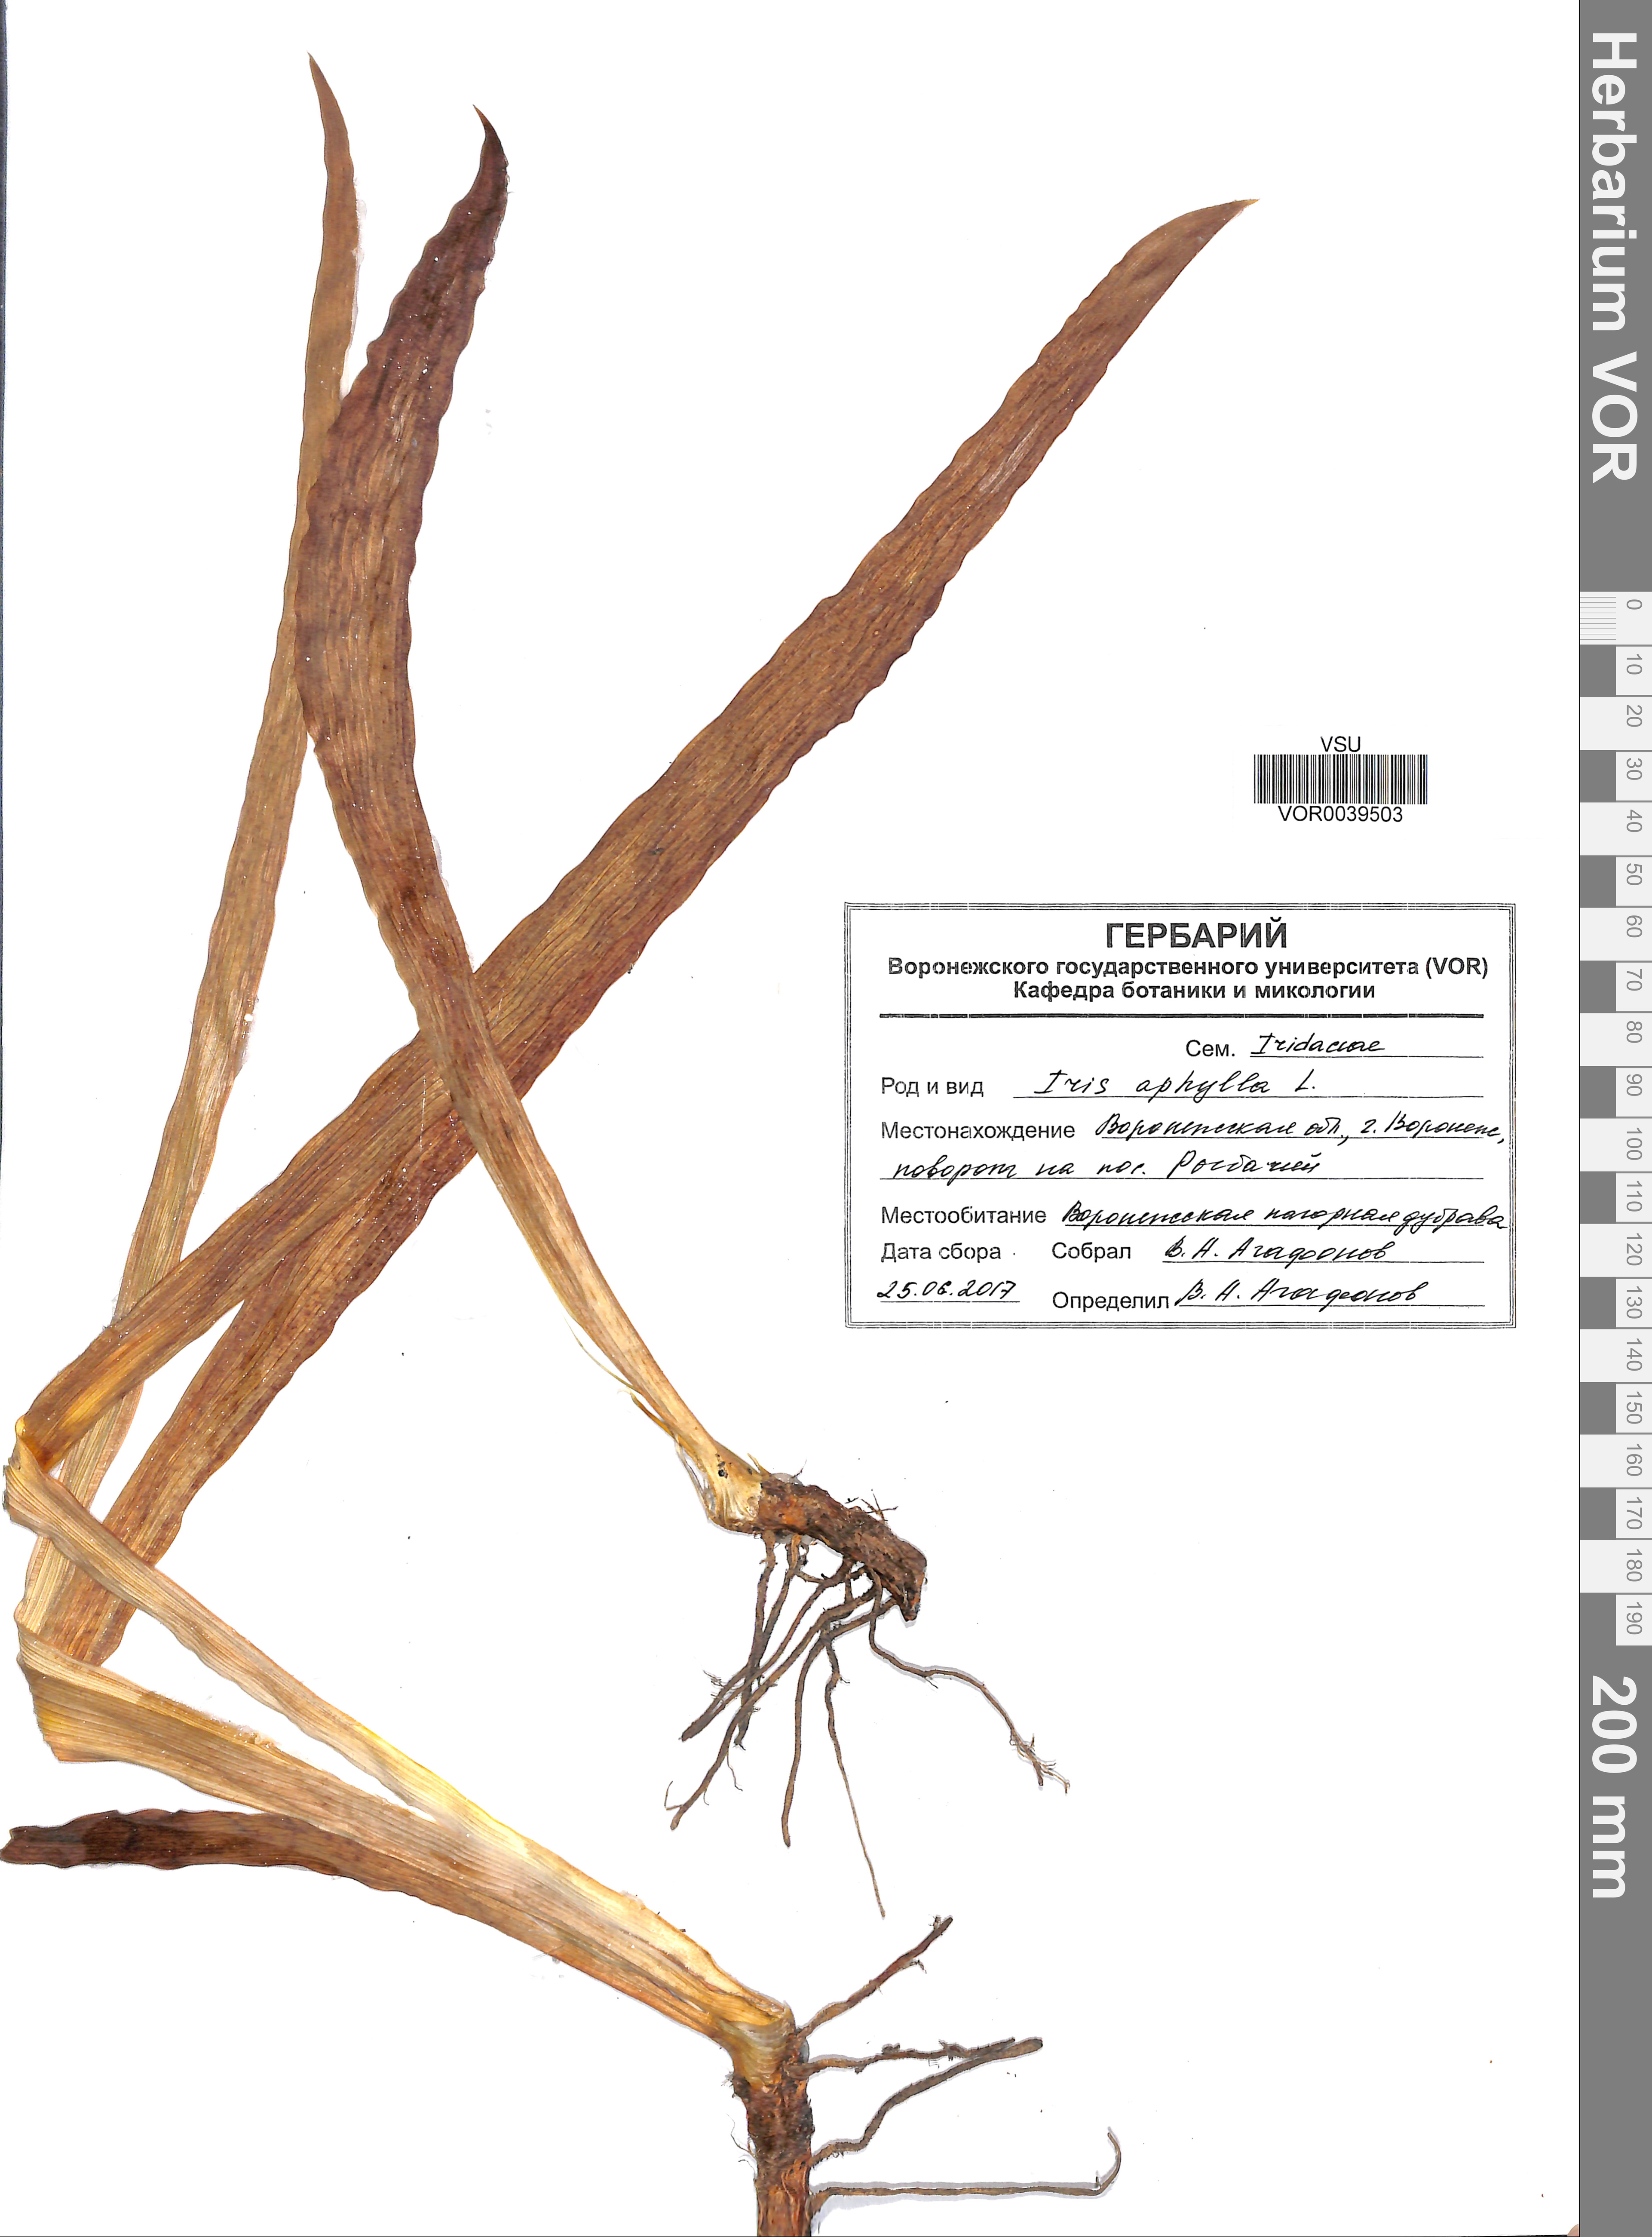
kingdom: Plantae
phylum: Tracheophyta
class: Liliopsida
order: Asparagales
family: Iridaceae
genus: Iris
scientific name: Iris aphylla
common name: Stool iris
